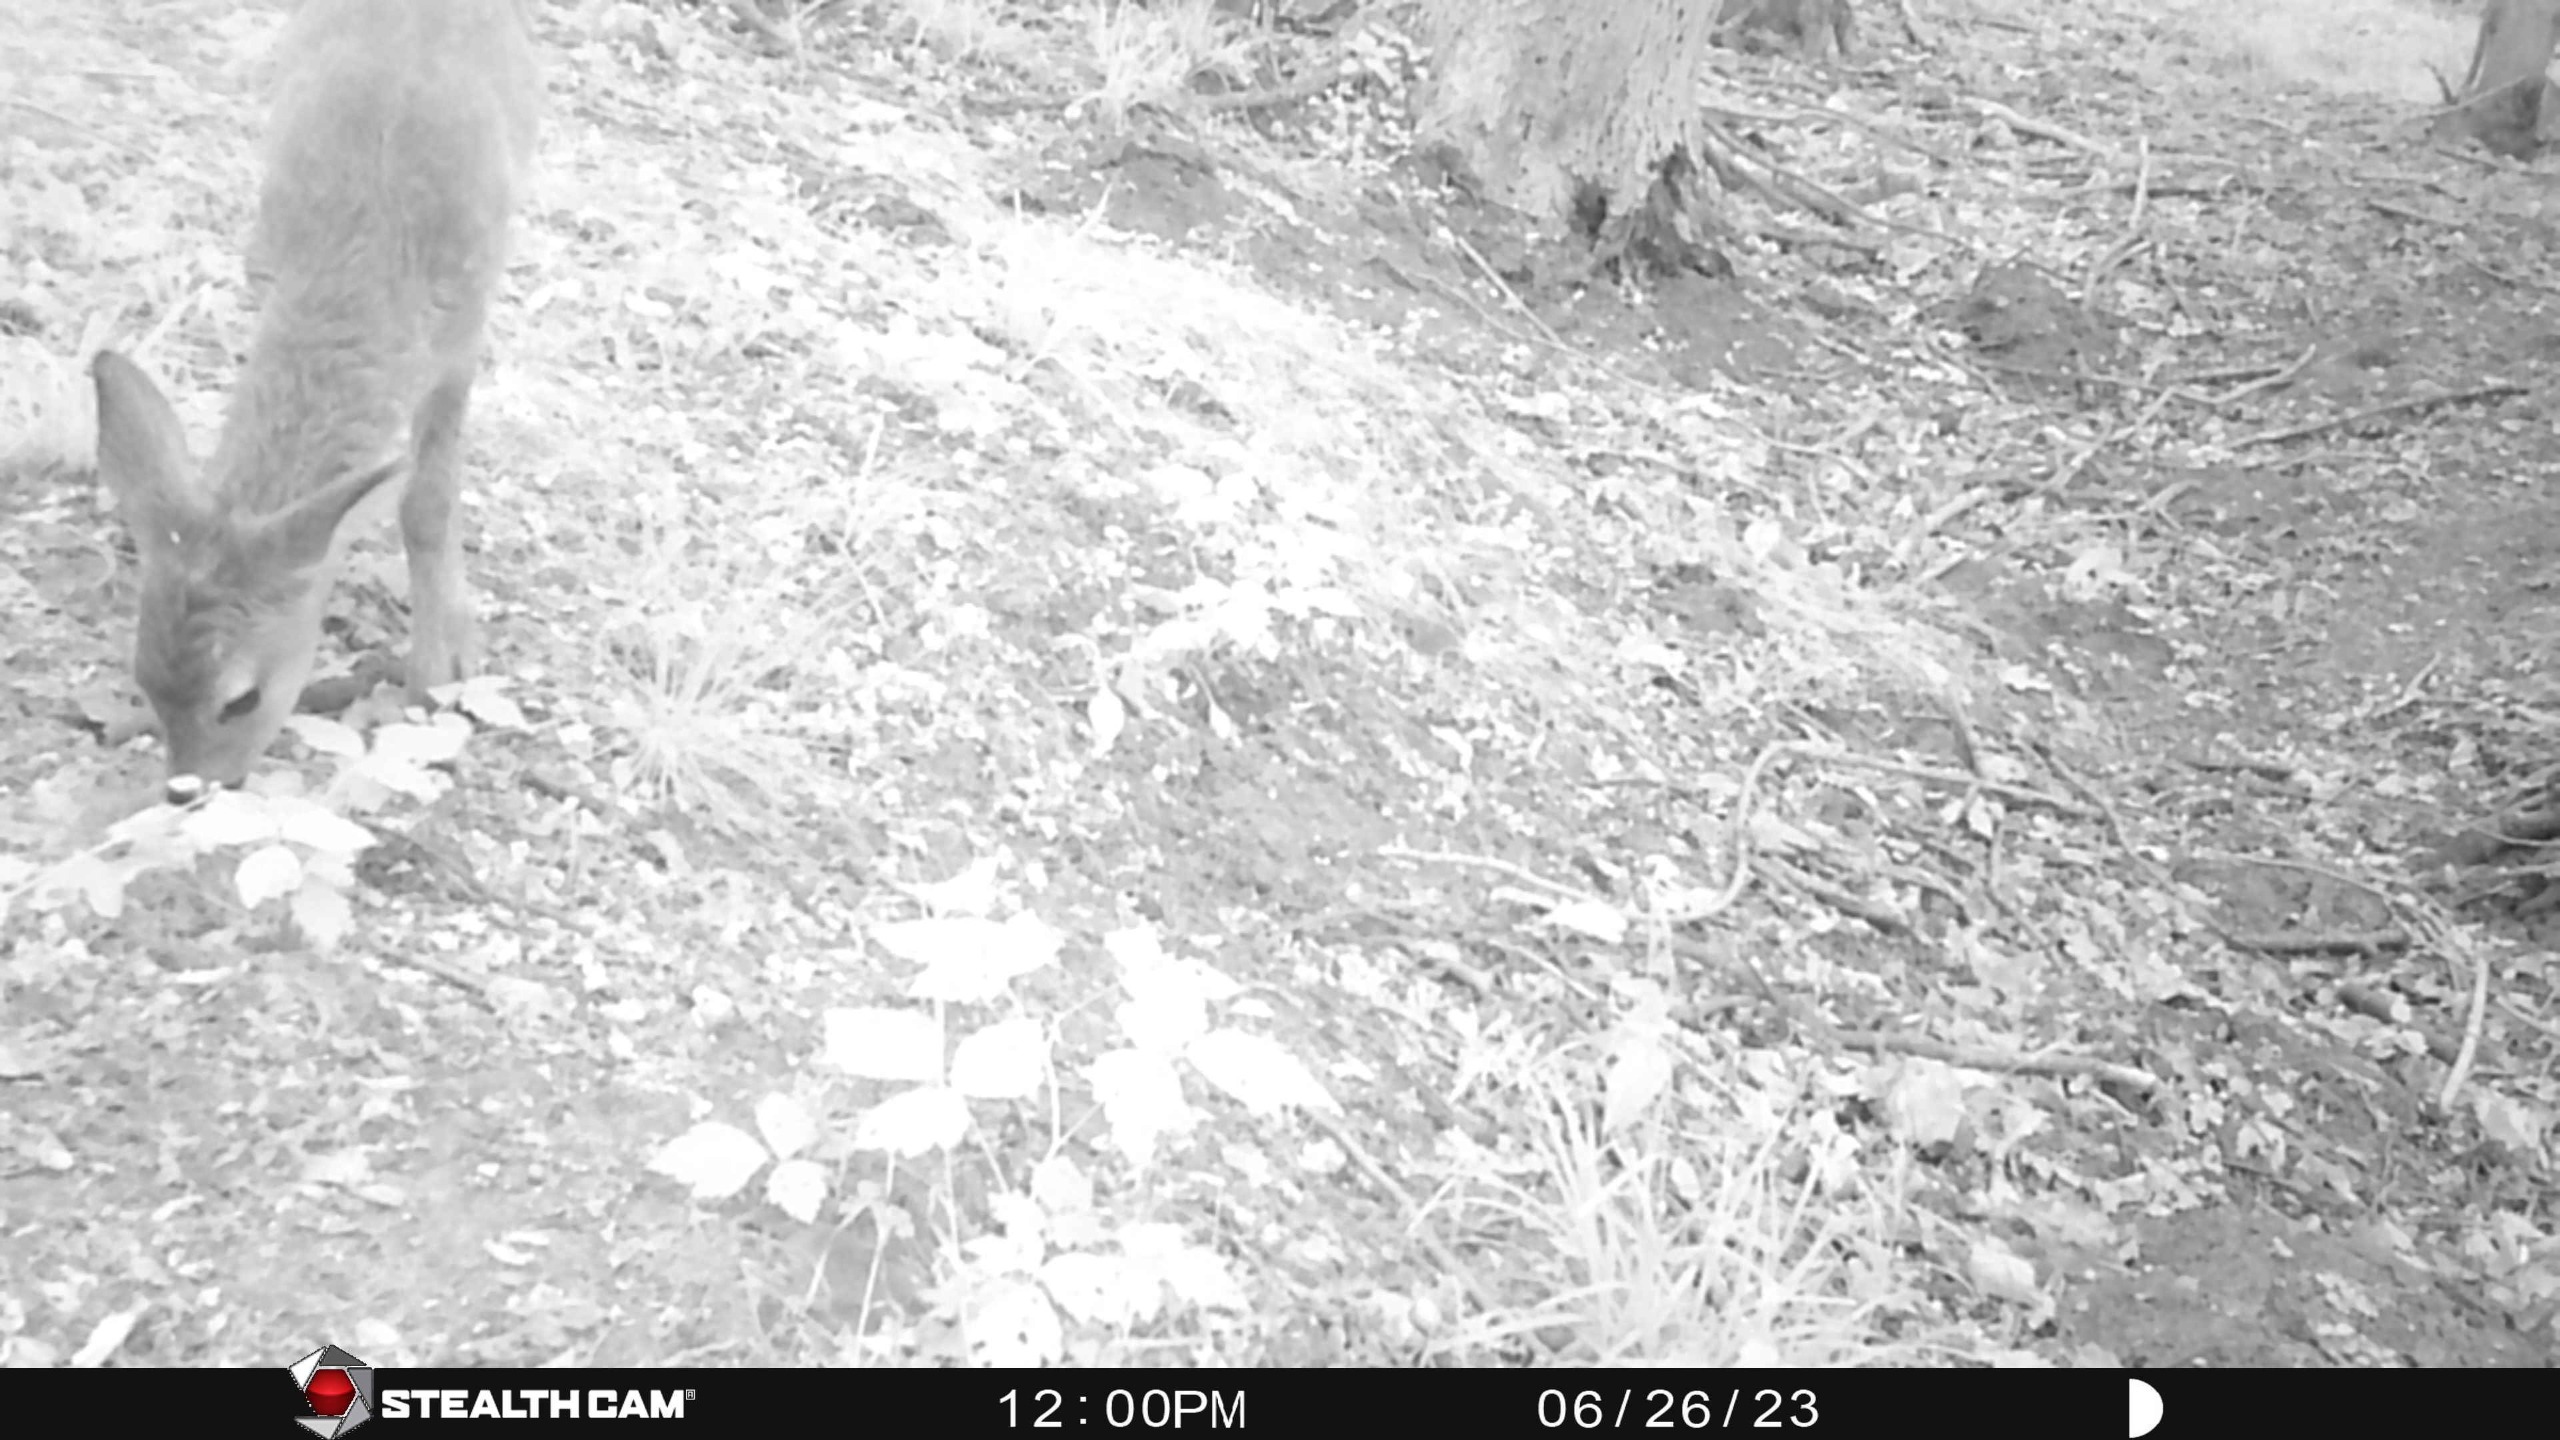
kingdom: Animalia
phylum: Chordata
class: Mammalia
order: Artiodactyla
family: Cervidae
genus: Capreolus
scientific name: Capreolus capreolus
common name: Rådyr
